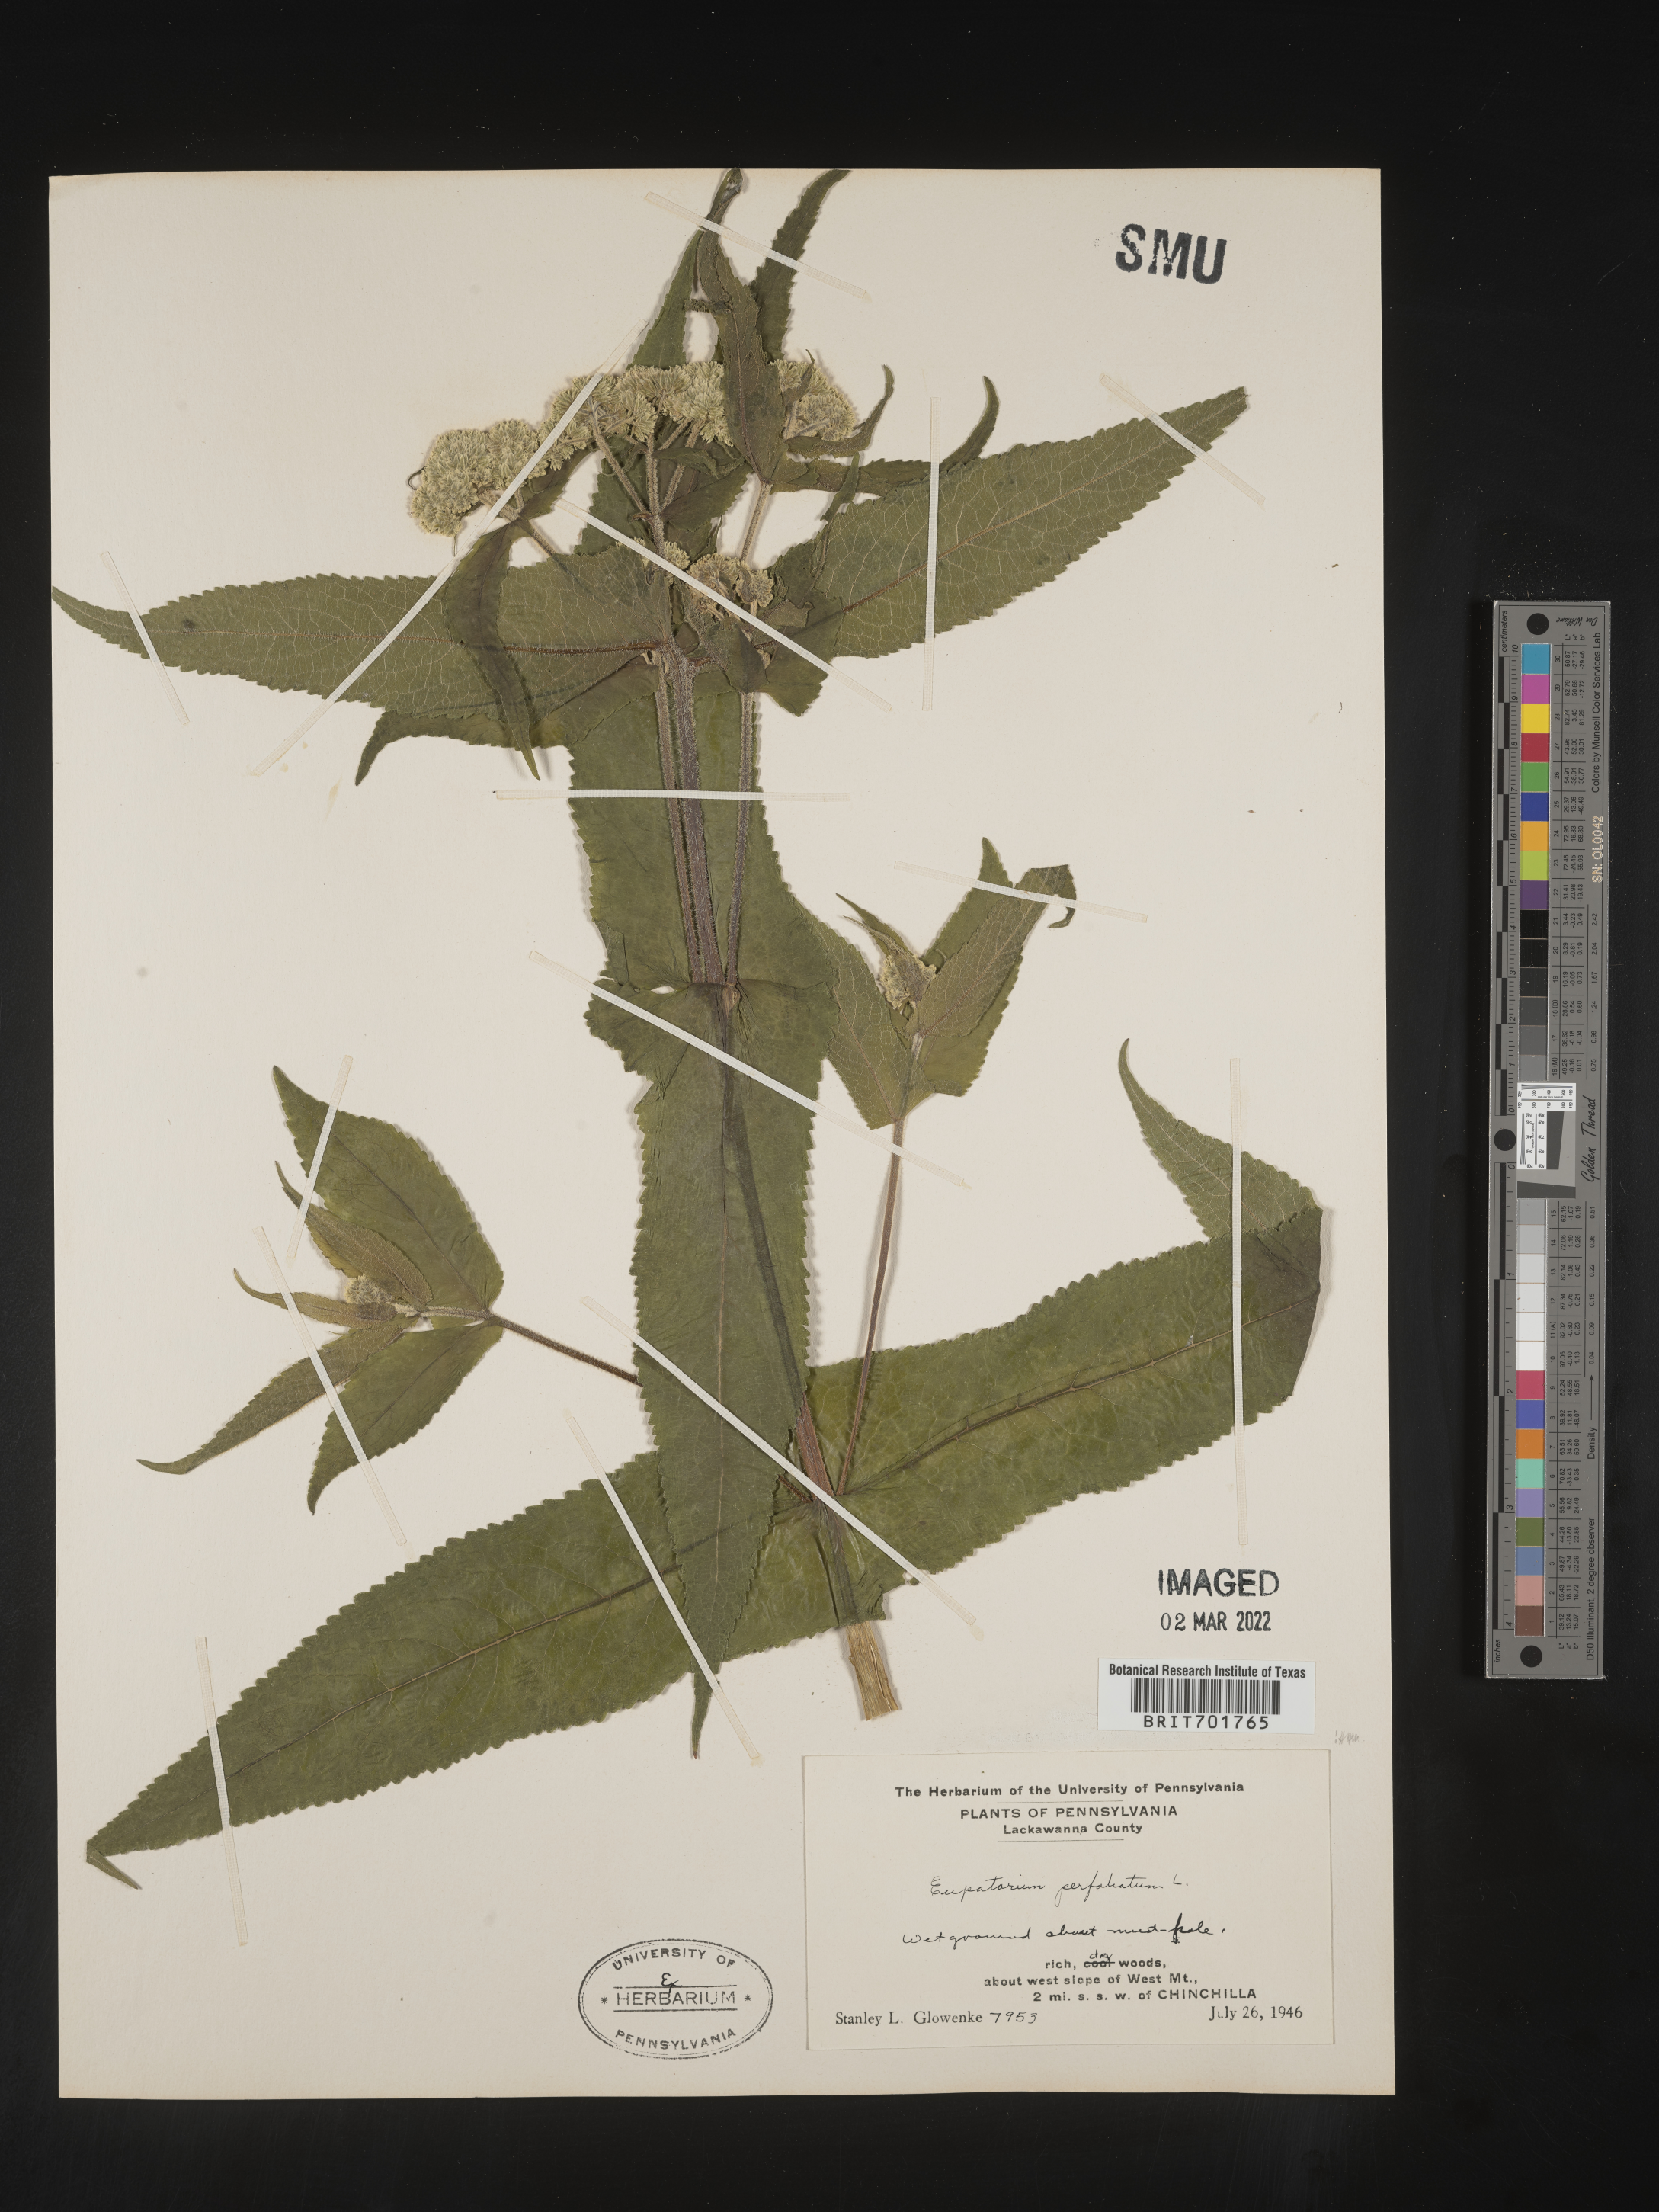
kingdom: Plantae
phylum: Tracheophyta
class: Magnoliopsida
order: Asterales
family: Asteraceae
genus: Eupatorium
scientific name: Eupatorium perfoliatum
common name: Boneset
